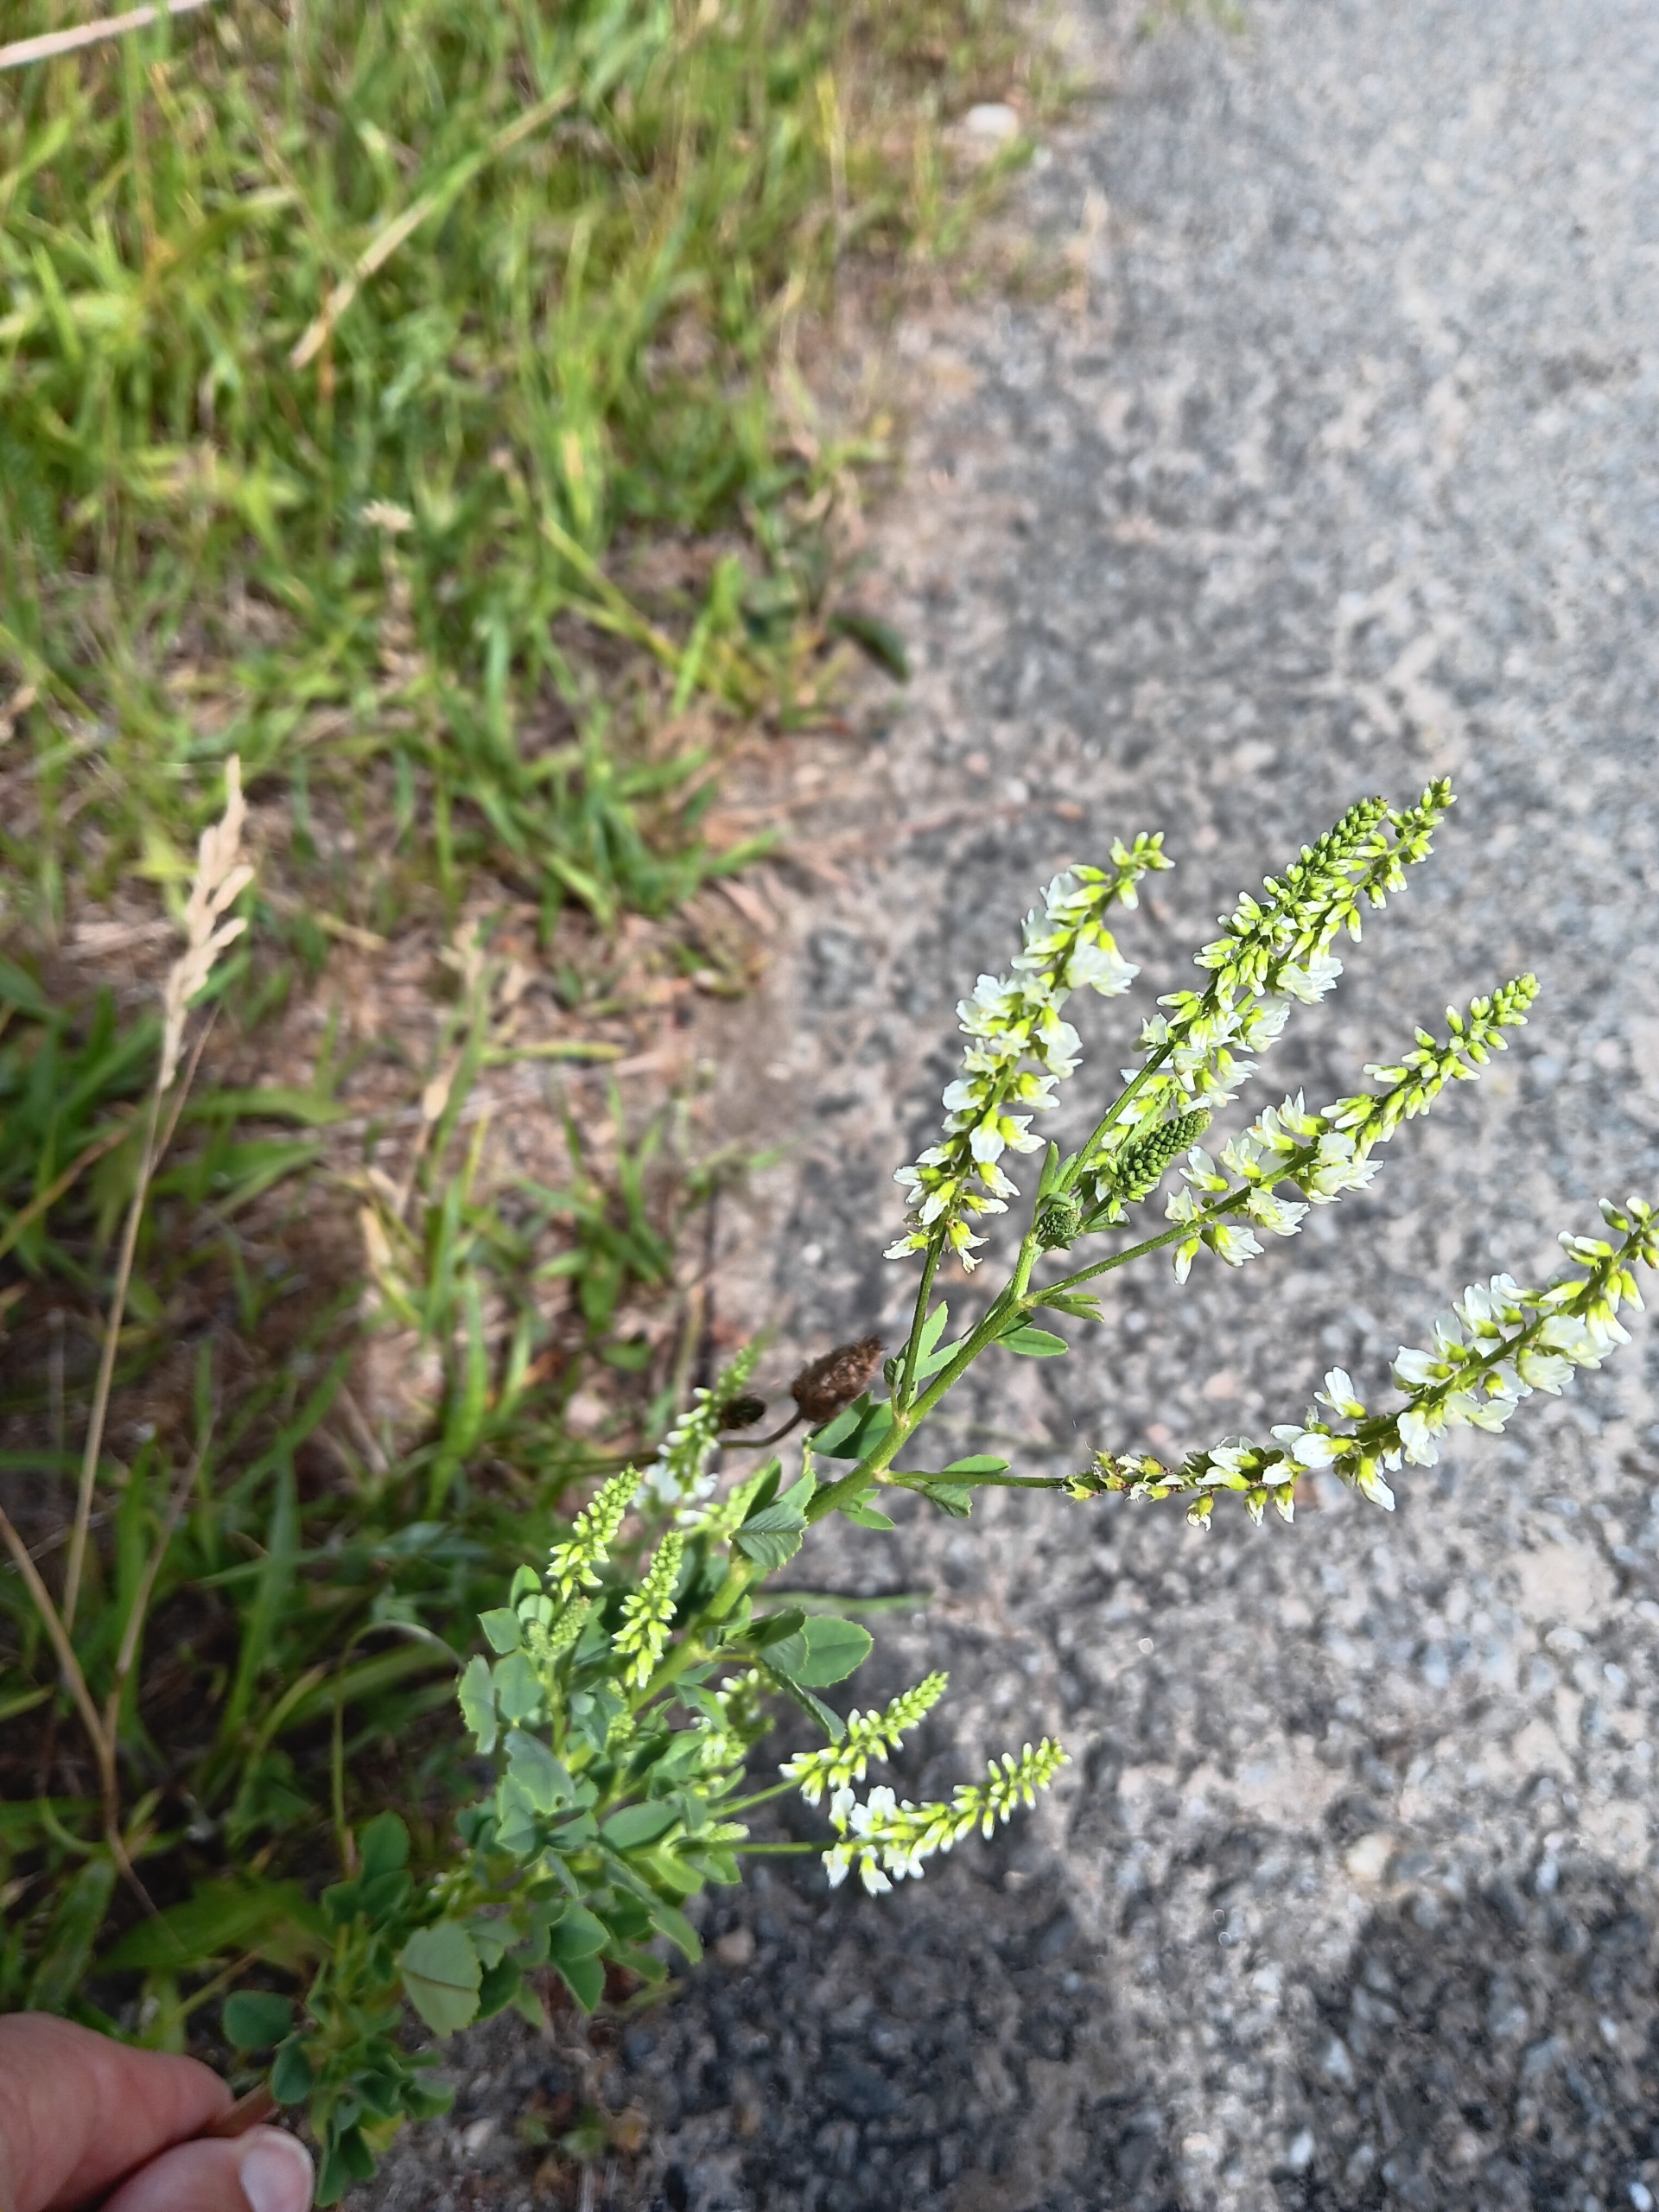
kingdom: Plantae
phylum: Tracheophyta
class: Magnoliopsida
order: Fabales
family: Fabaceae
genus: Melilotus
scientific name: Melilotus albus
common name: Hvid stenkløver
